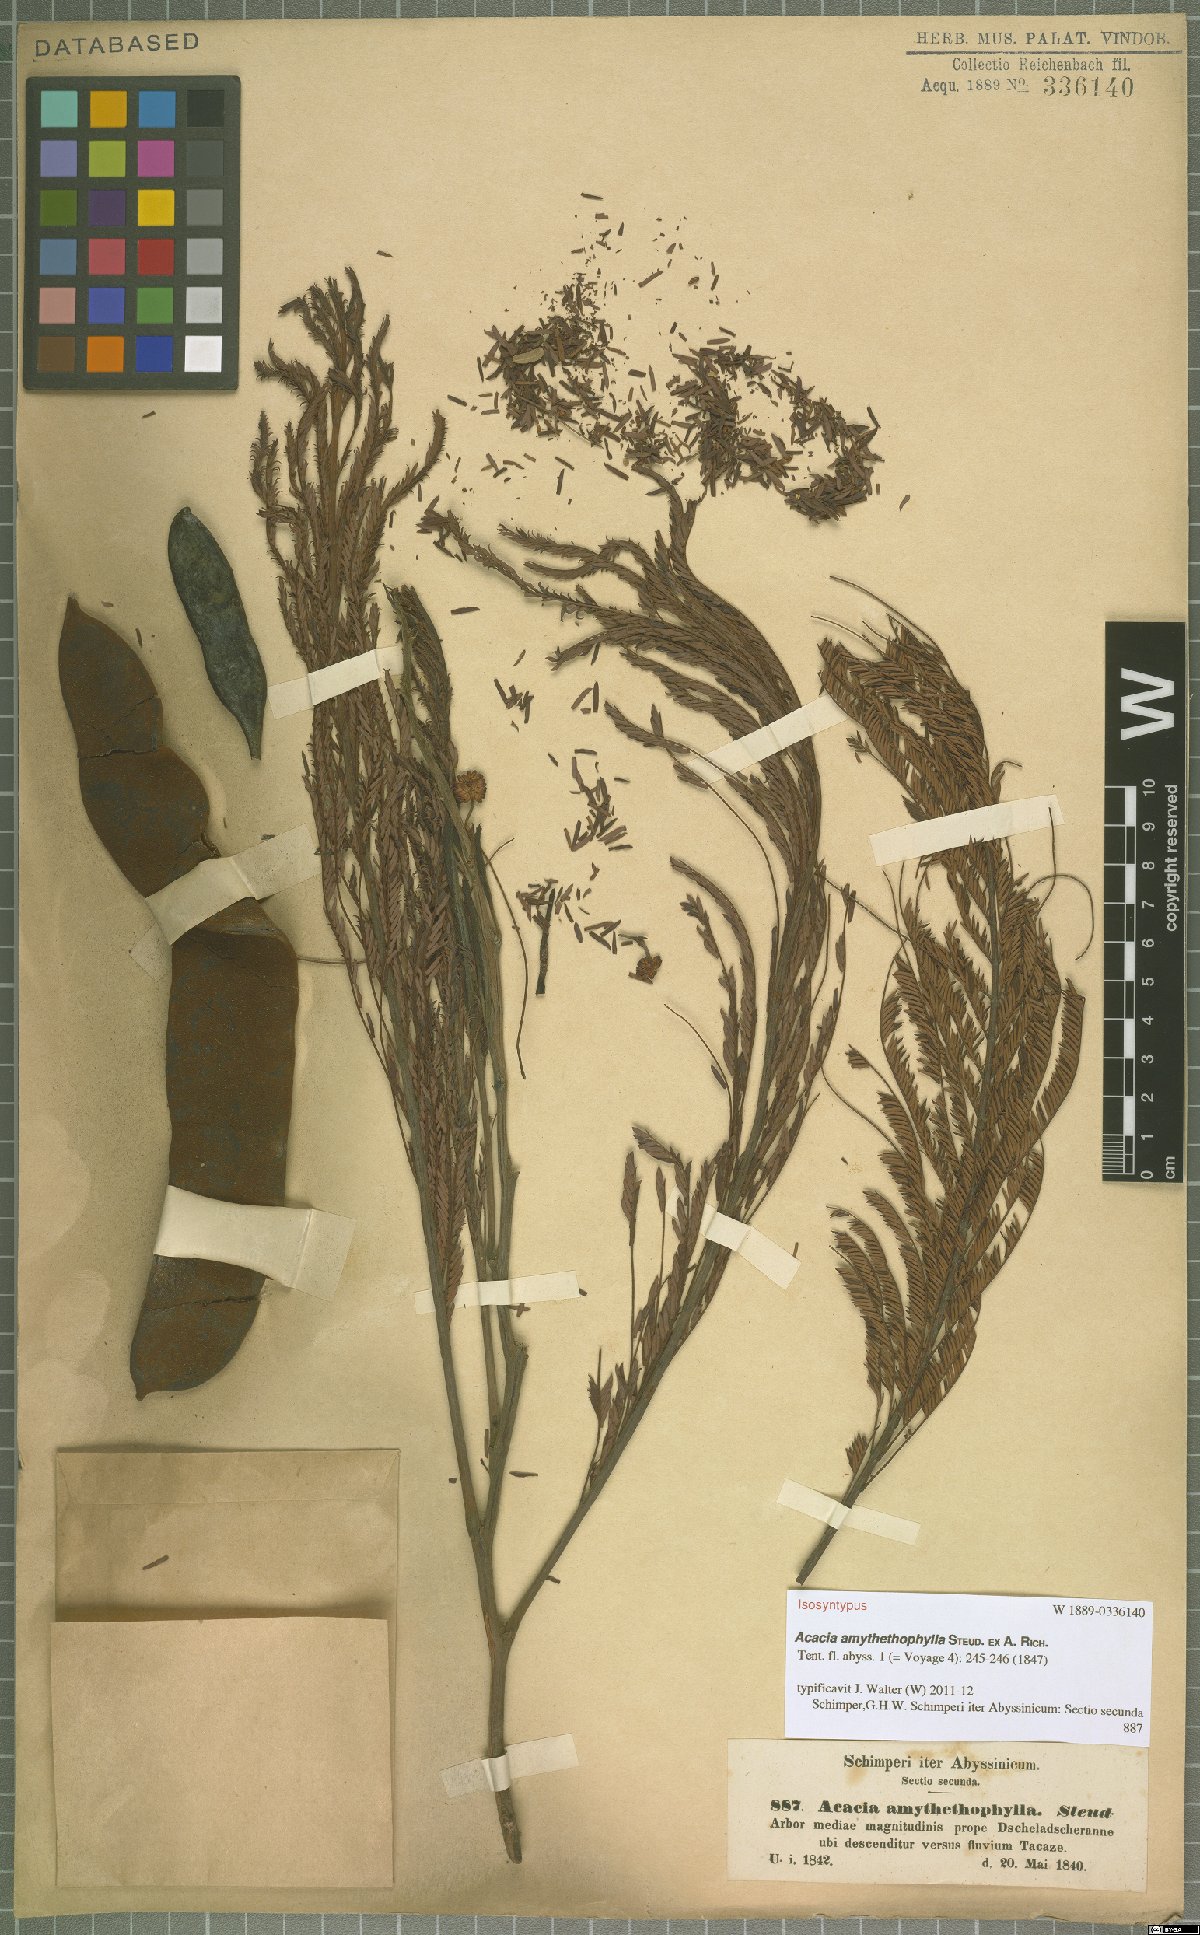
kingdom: Plantae
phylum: Tracheophyta
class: Magnoliopsida
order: Fabales
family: Fabaceae
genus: Vachellia
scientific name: Vachellia amythethophylla
